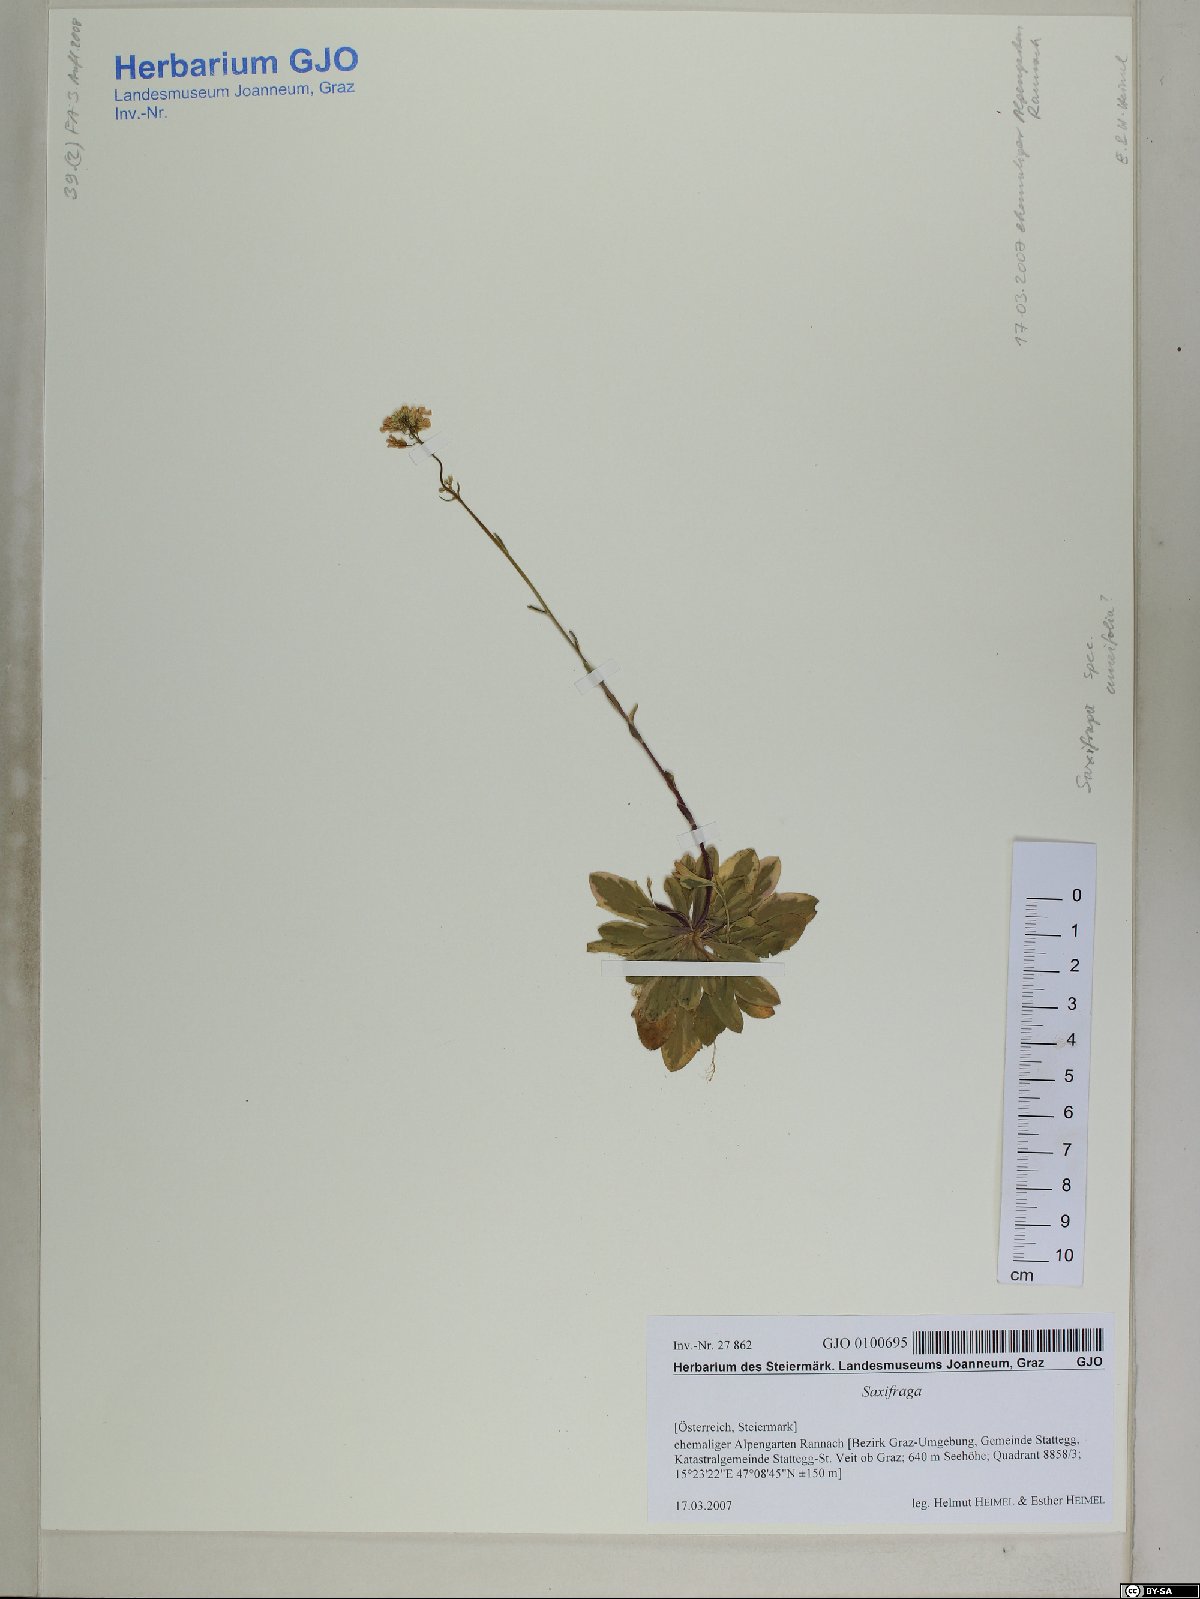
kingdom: Plantae
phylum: Tracheophyta
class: Magnoliopsida
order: Saxifragales
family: Saxifragaceae
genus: Saxifraga
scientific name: Saxifraga
